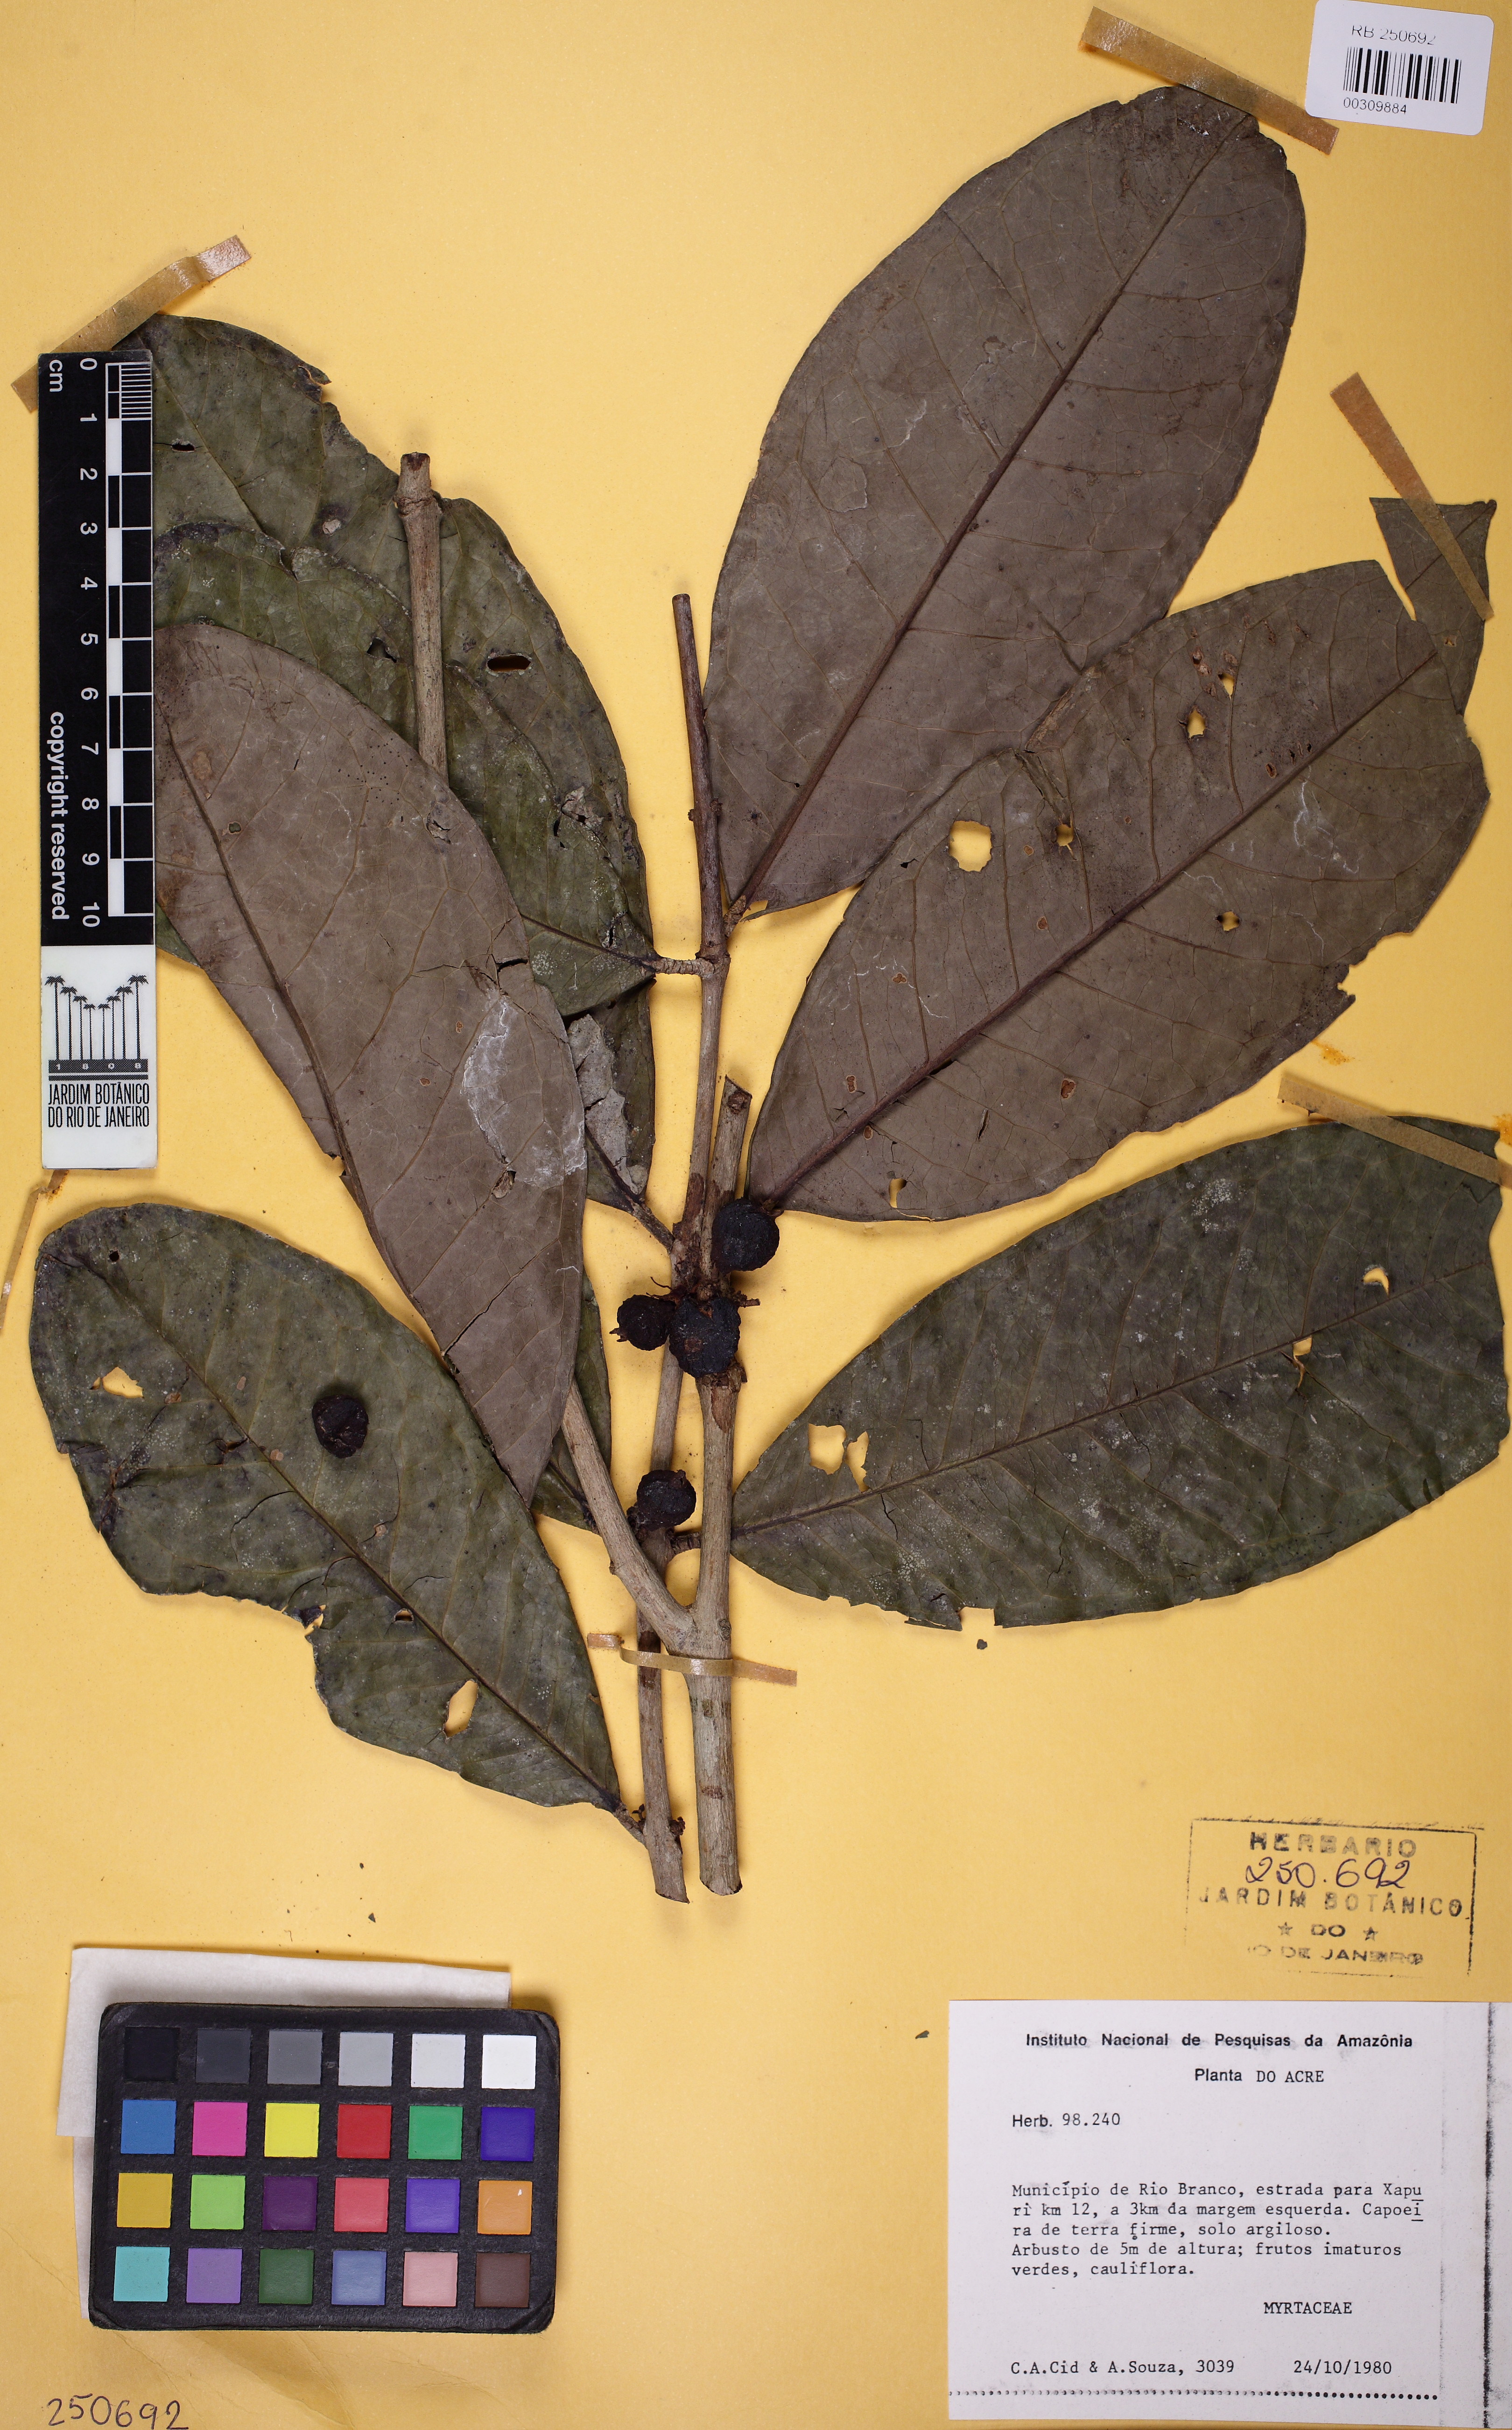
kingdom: Plantae
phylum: Tracheophyta
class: Magnoliopsida
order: Myrtales
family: Myrtaceae
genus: Eugenia
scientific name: Eugenia discreta
